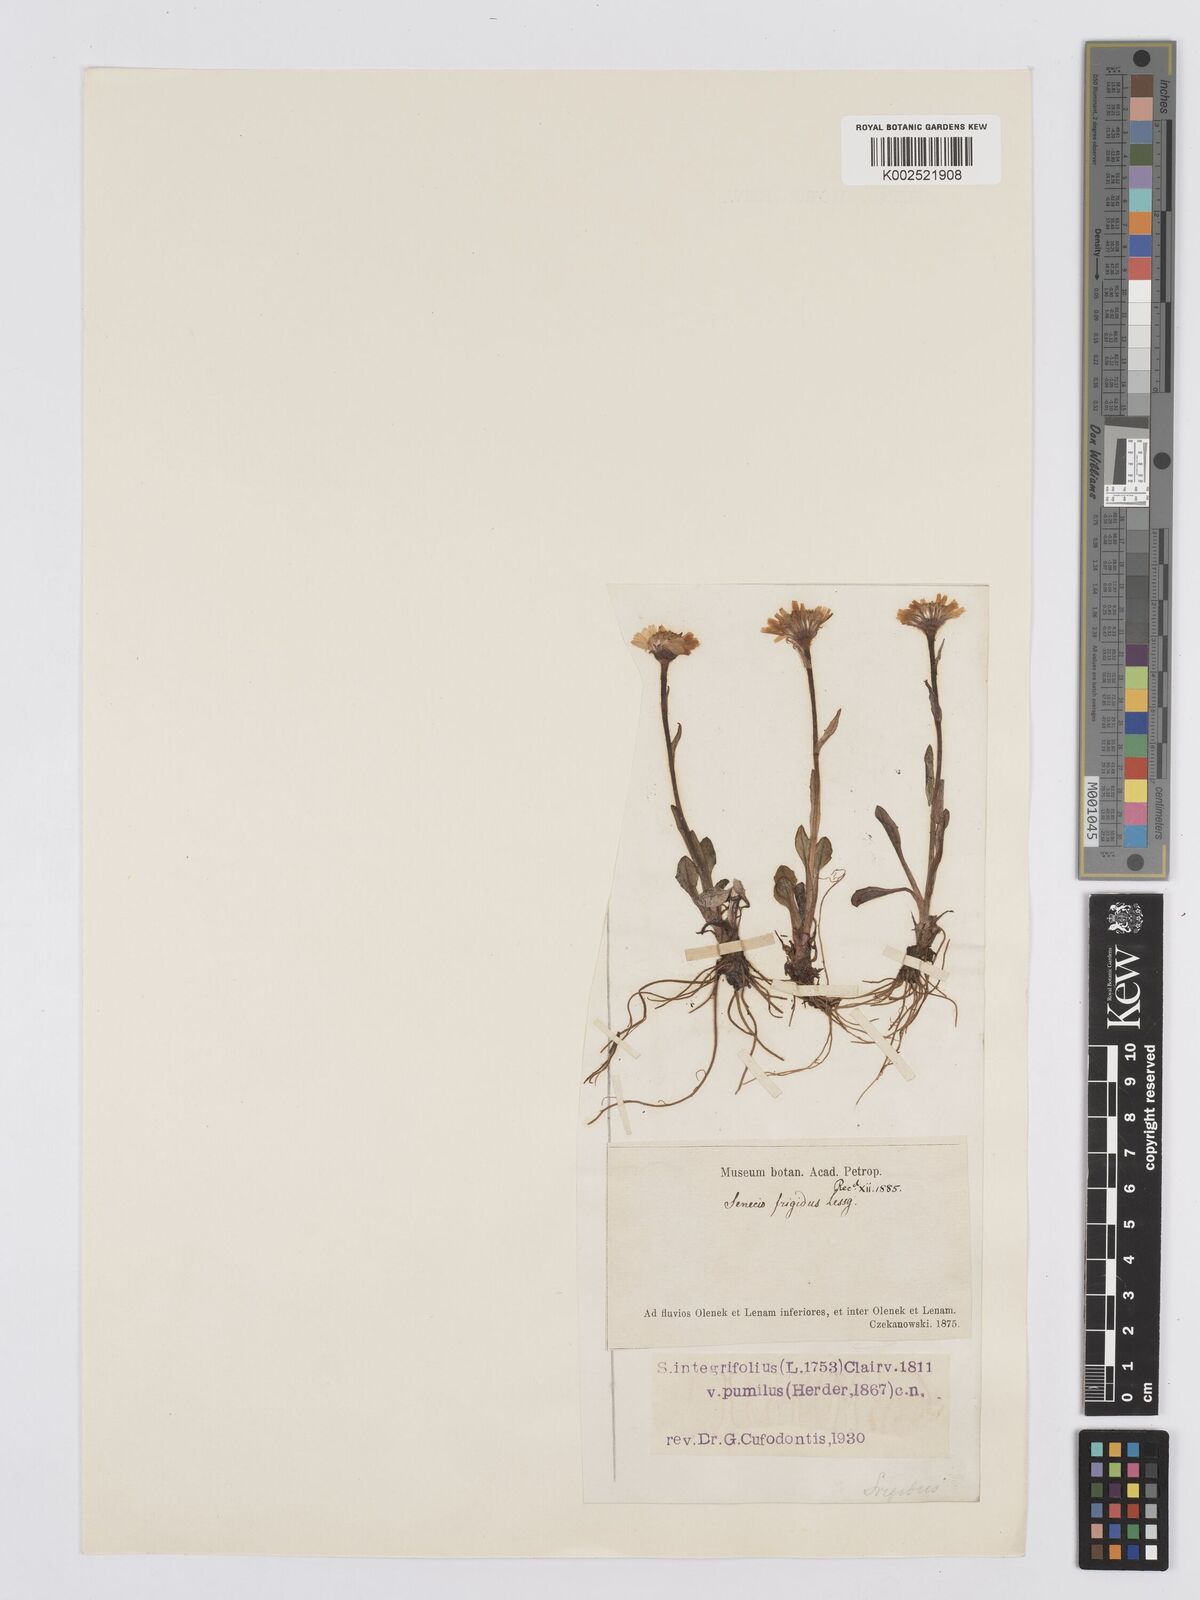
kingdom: Plantae
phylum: Tracheophyta
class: Magnoliopsida
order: Asterales
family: Asteraceae
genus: Tephroseris
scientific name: Tephroseris
